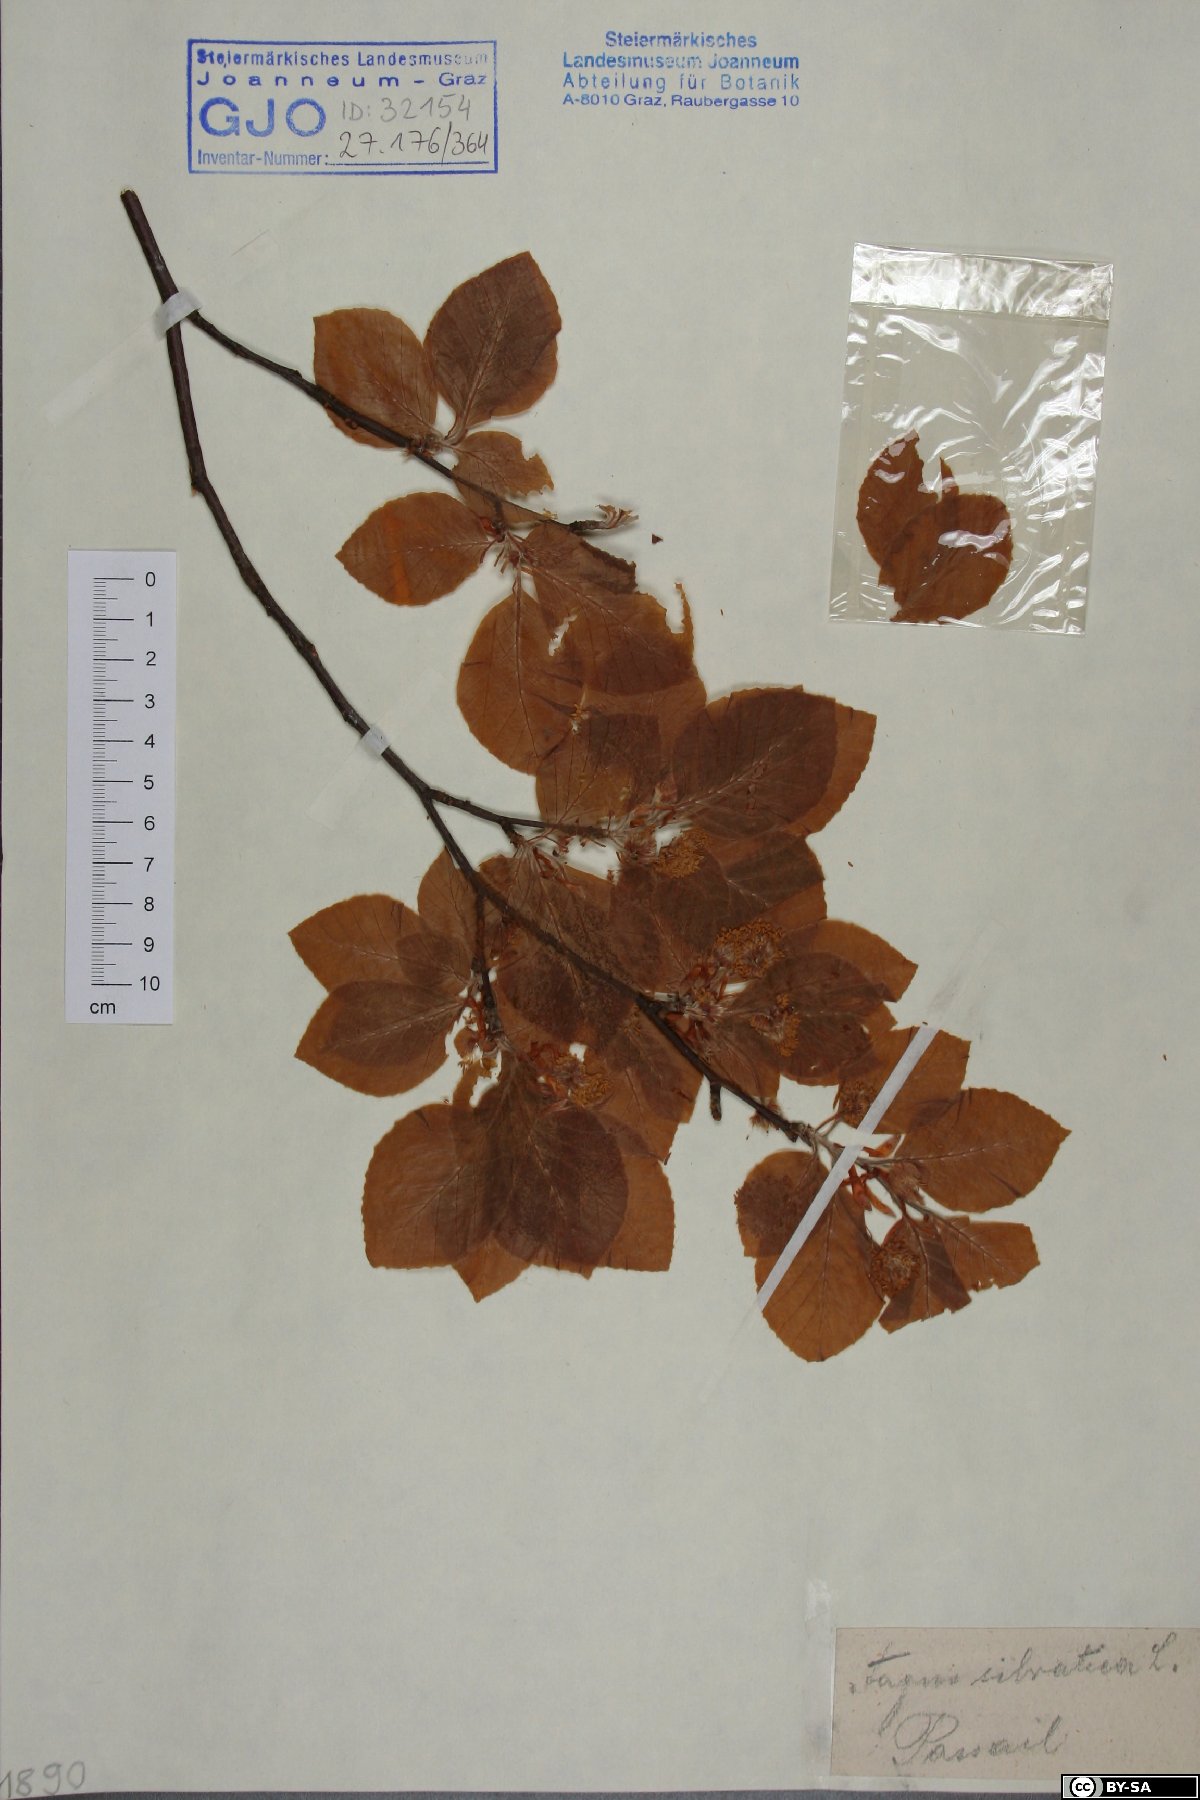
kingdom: Plantae
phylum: Tracheophyta
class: Magnoliopsida
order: Fagales
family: Fagaceae
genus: Fagus
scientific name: Fagus sylvatica
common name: Beech
